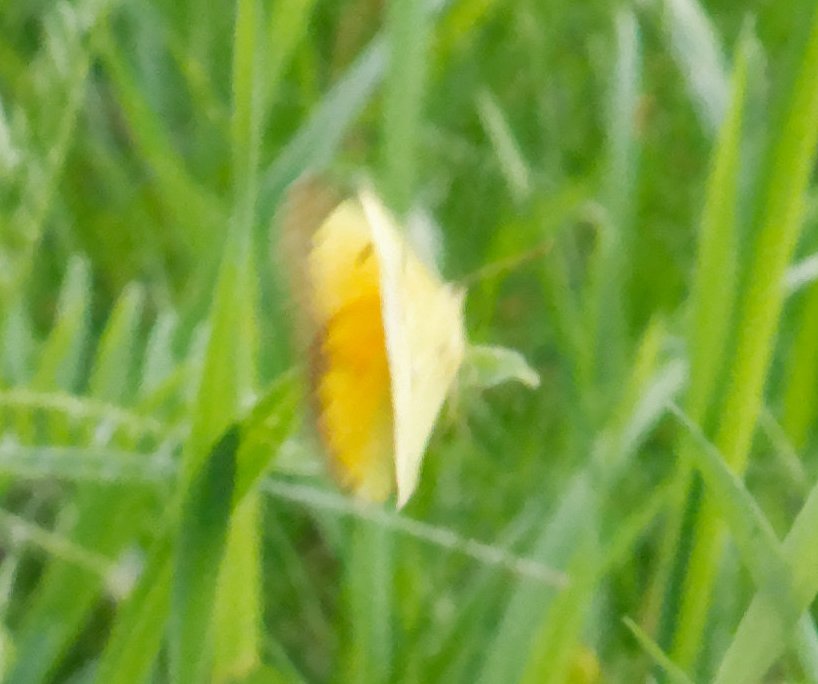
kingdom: Animalia
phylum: Arthropoda
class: Insecta
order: Lepidoptera
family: Pieridae
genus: Colias
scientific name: Colias eurytheme
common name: Orange Sulphur
